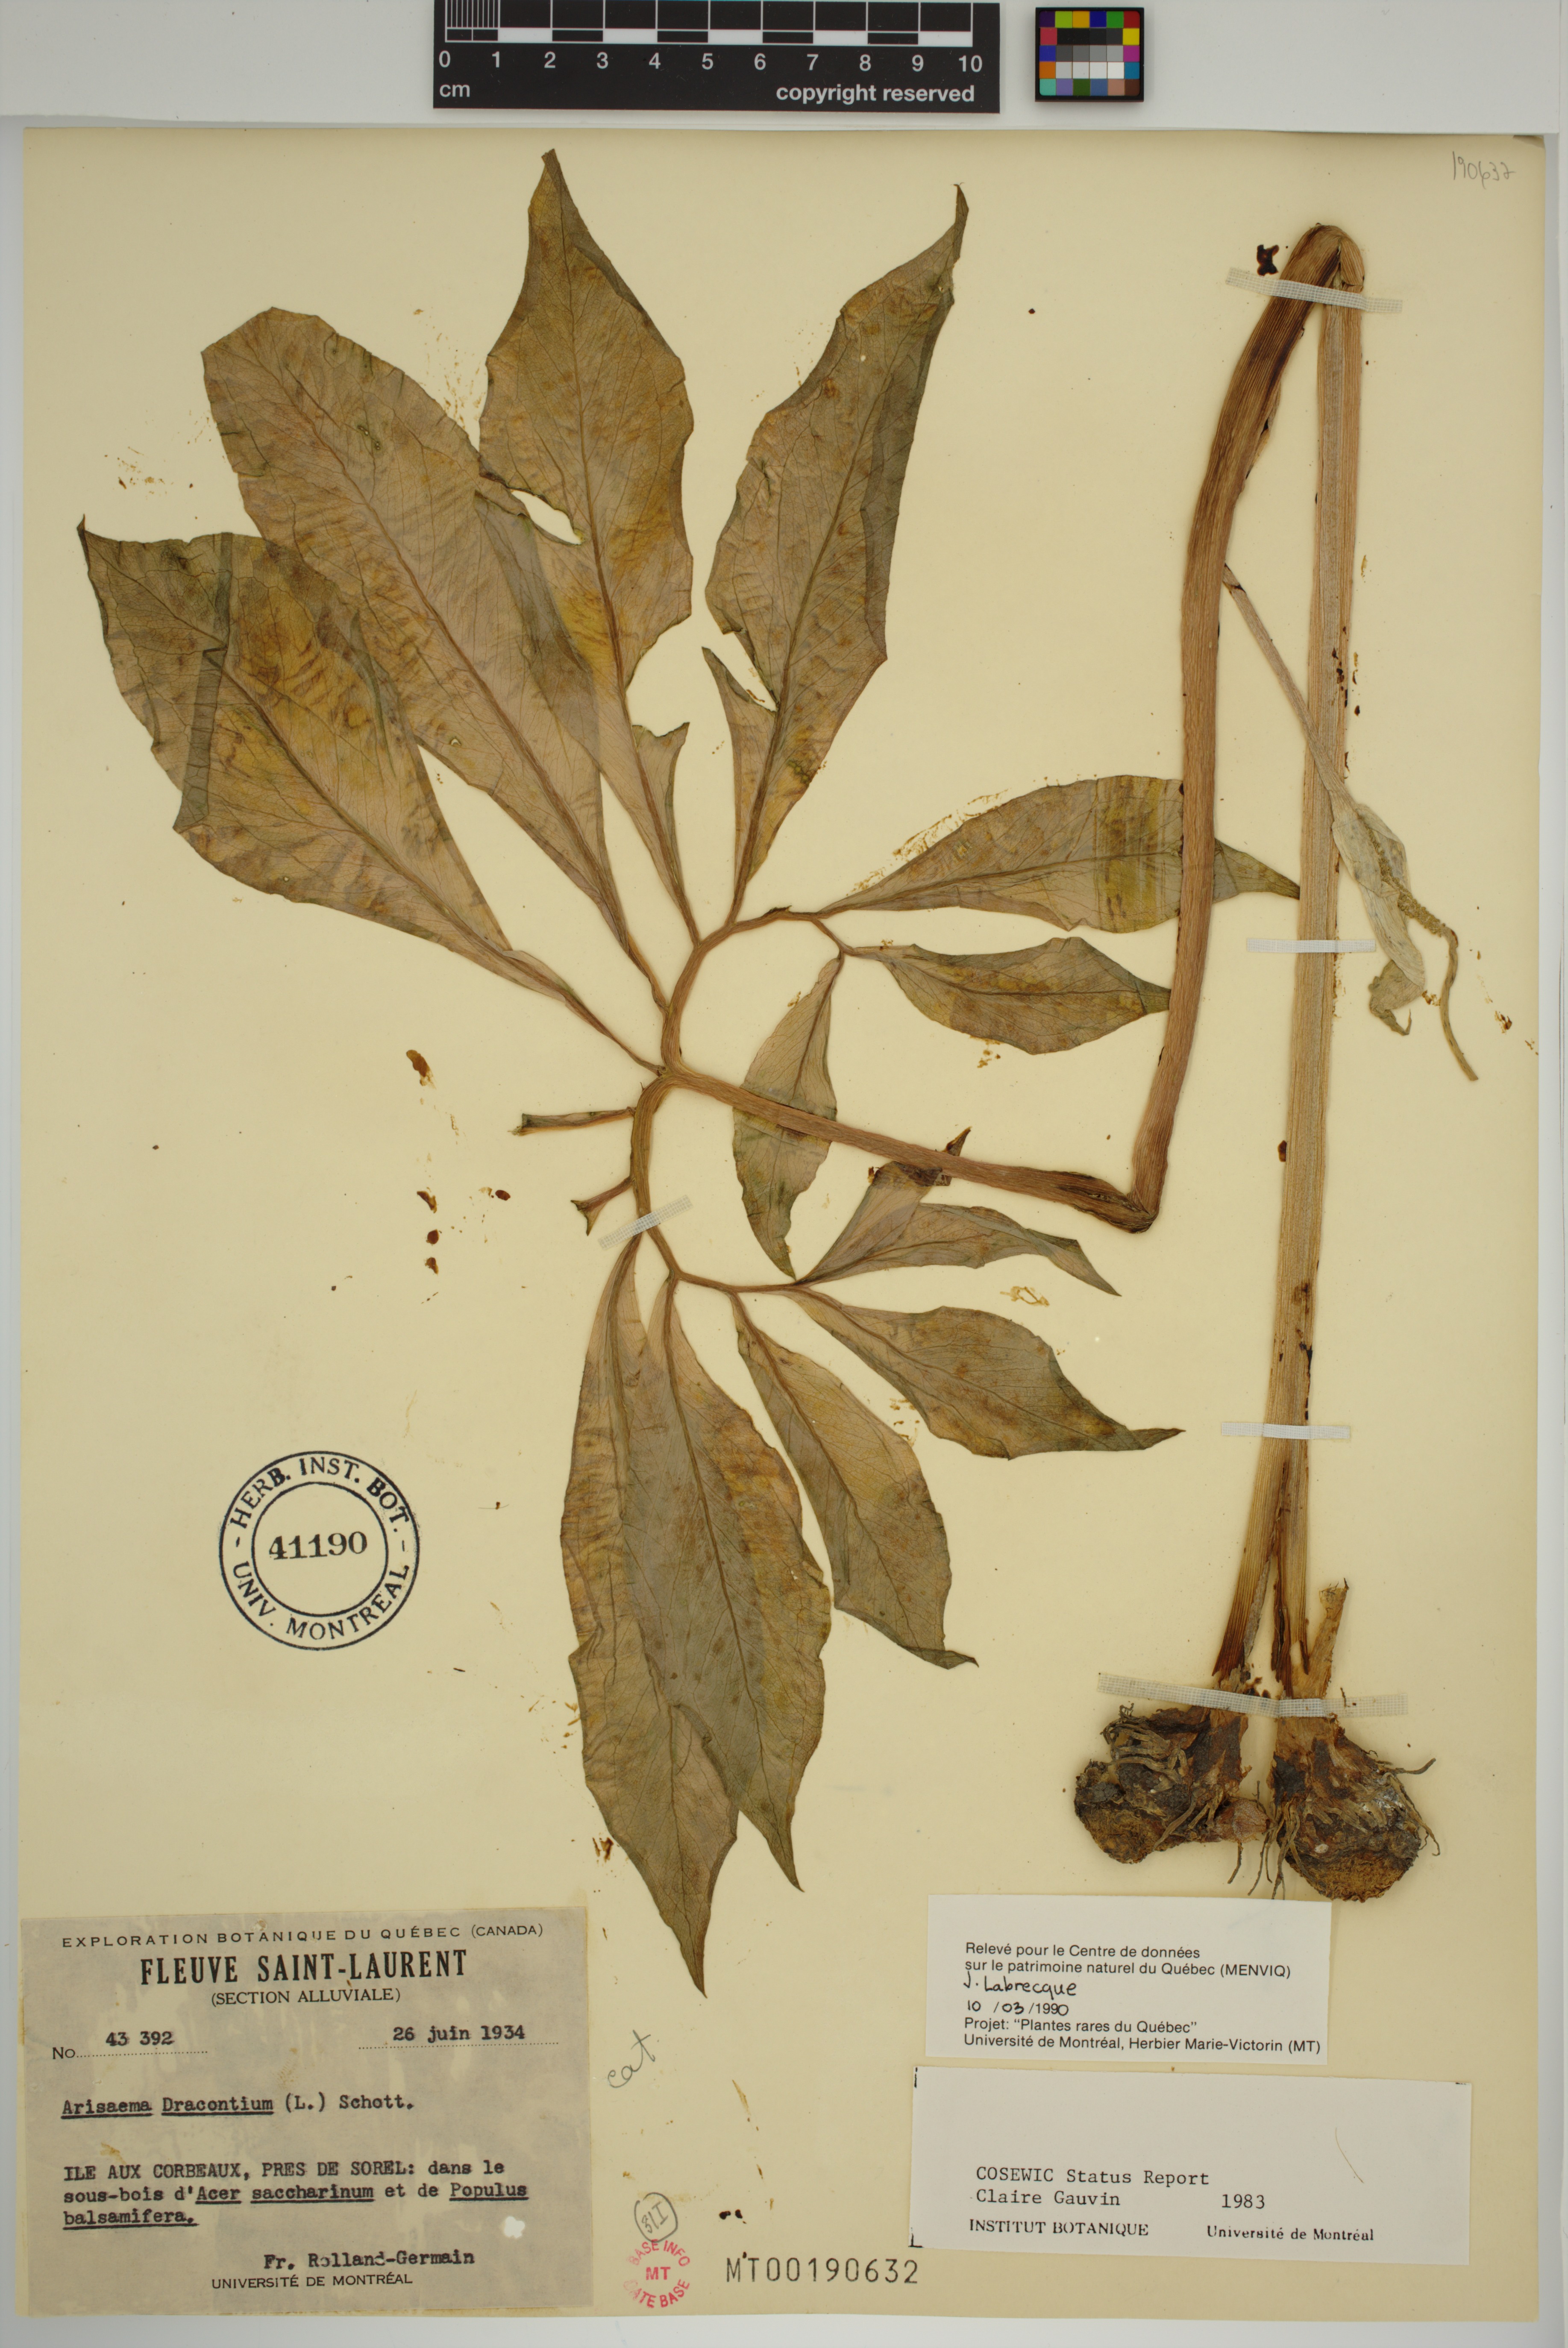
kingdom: Plantae
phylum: Tracheophyta
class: Liliopsida
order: Alismatales
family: Araceae
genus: Arisaema
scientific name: Arisaema dracontium
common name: Dragon-arum
